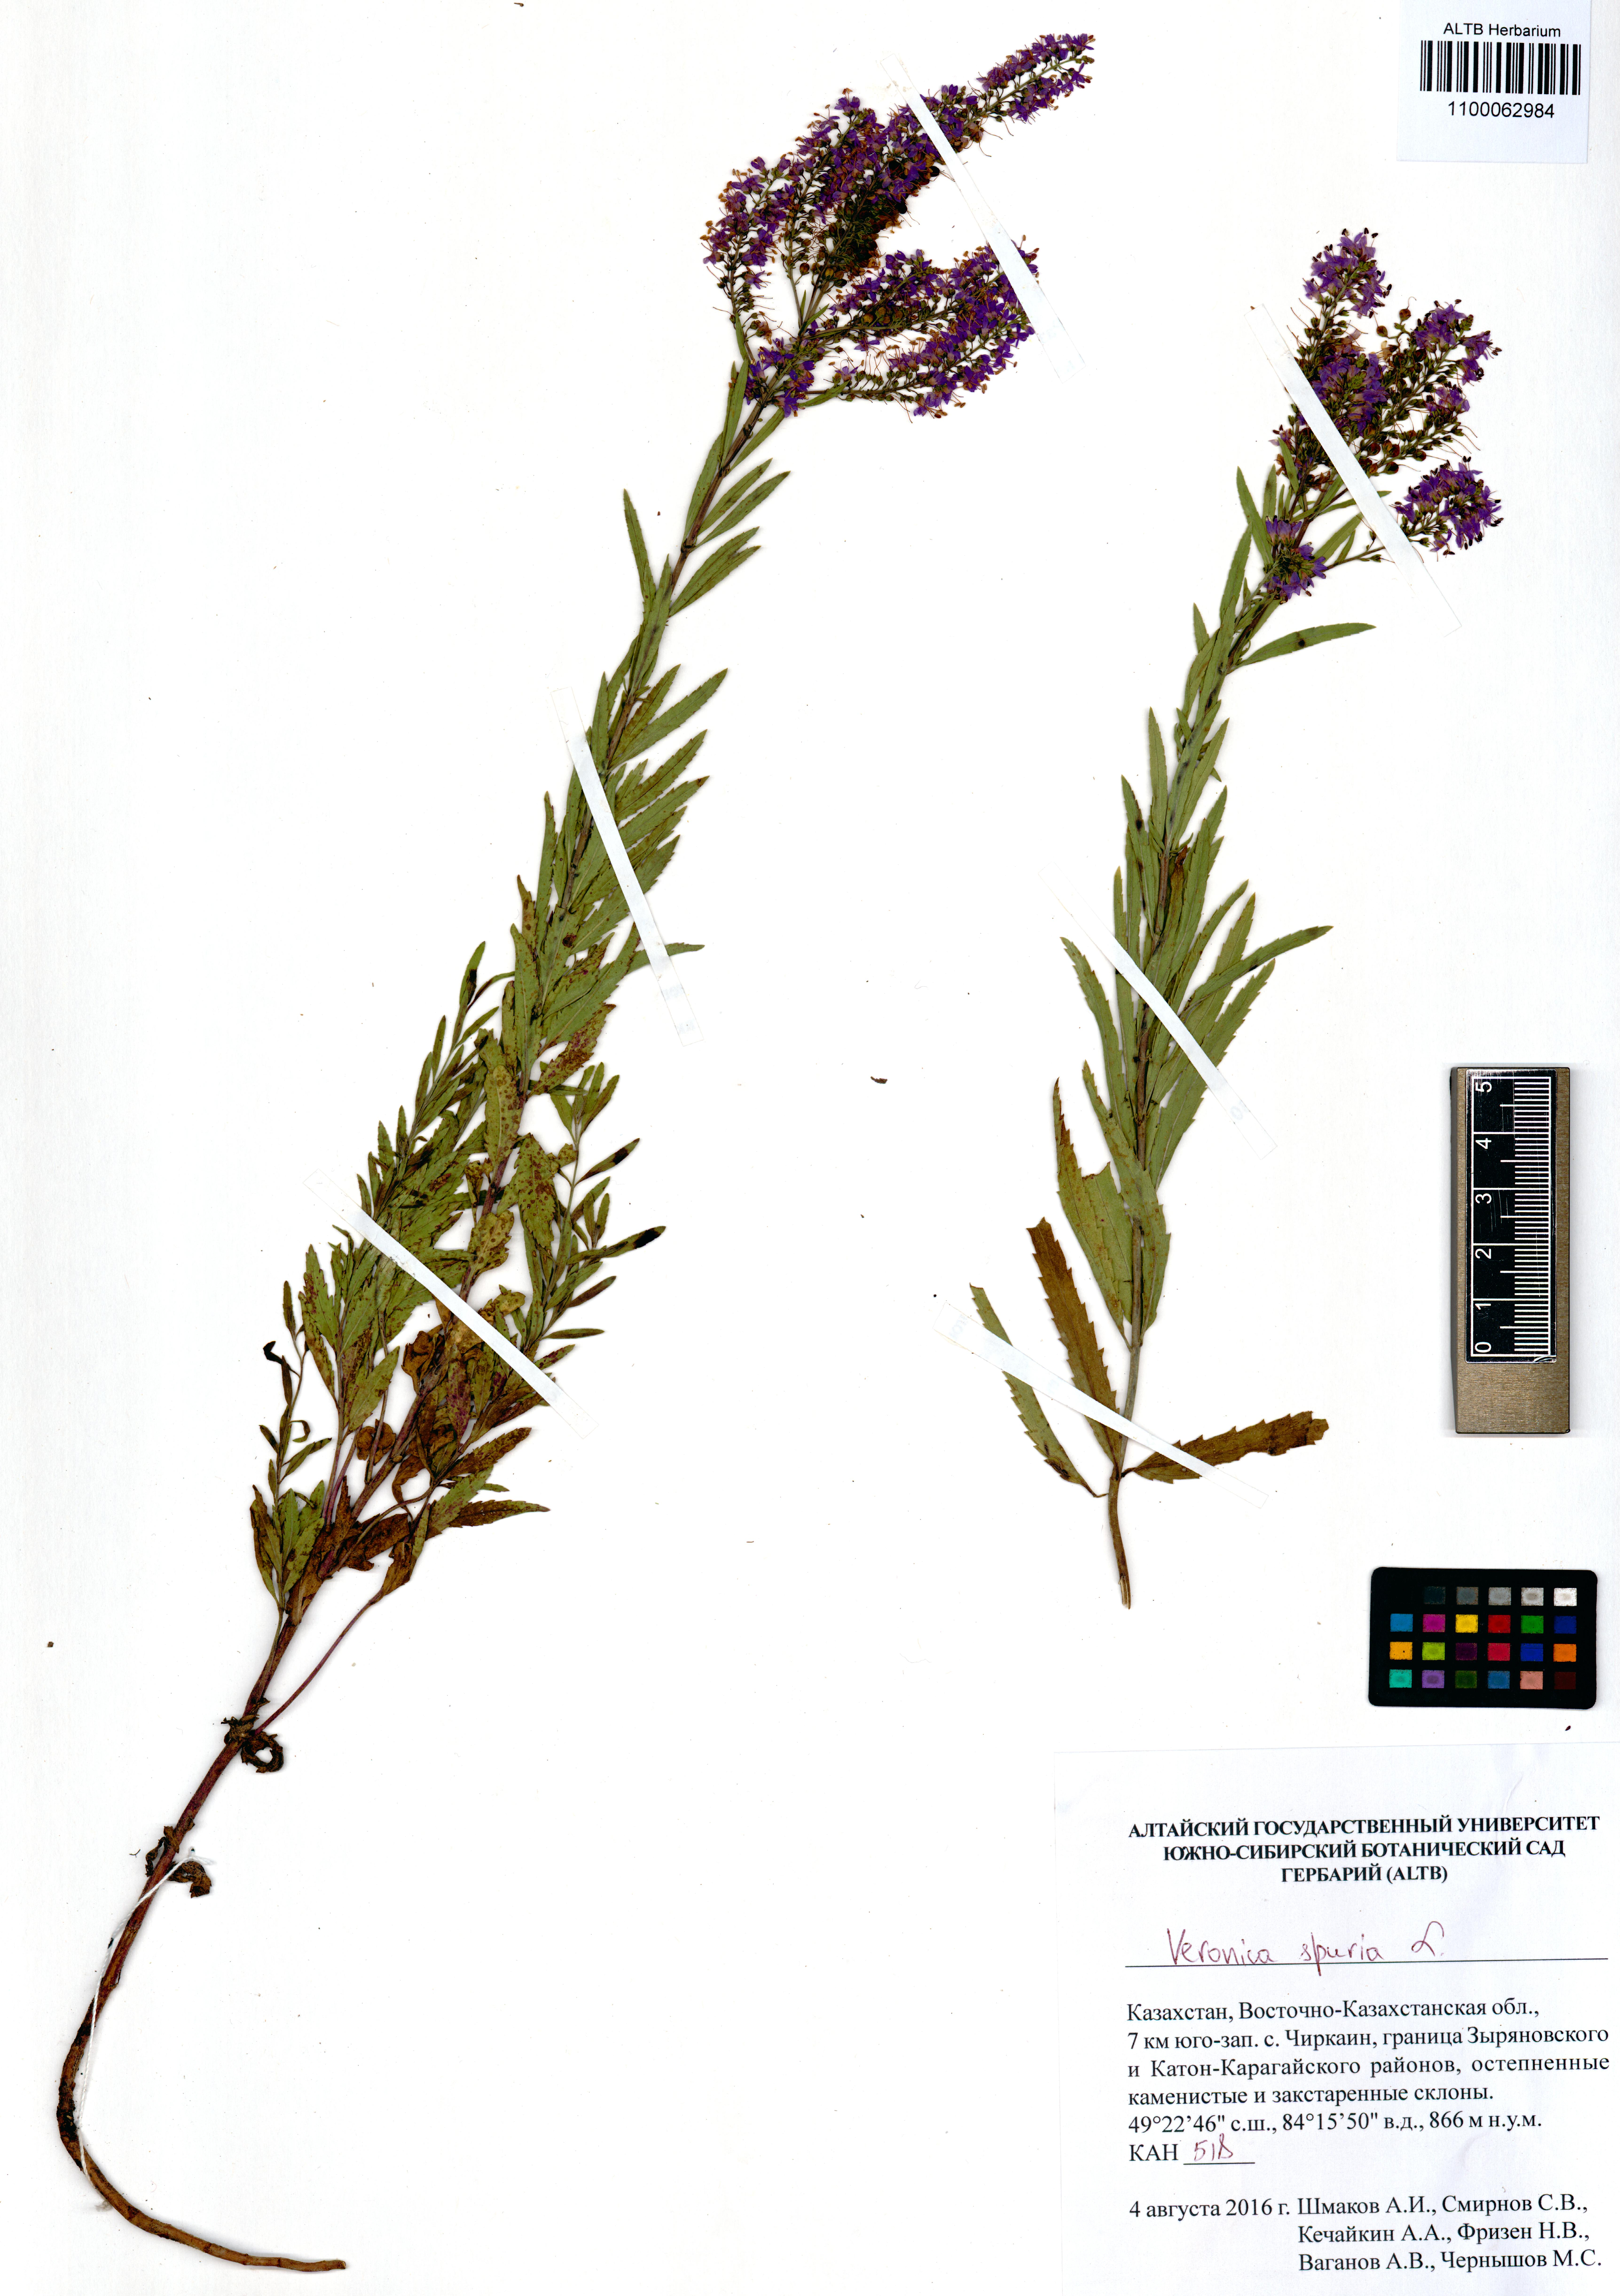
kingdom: Plantae
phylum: Tracheophyta
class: Magnoliopsida
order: Lamiales
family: Plantaginaceae
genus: Veronica
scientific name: Veronica spuria
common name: Bastard speedwell
